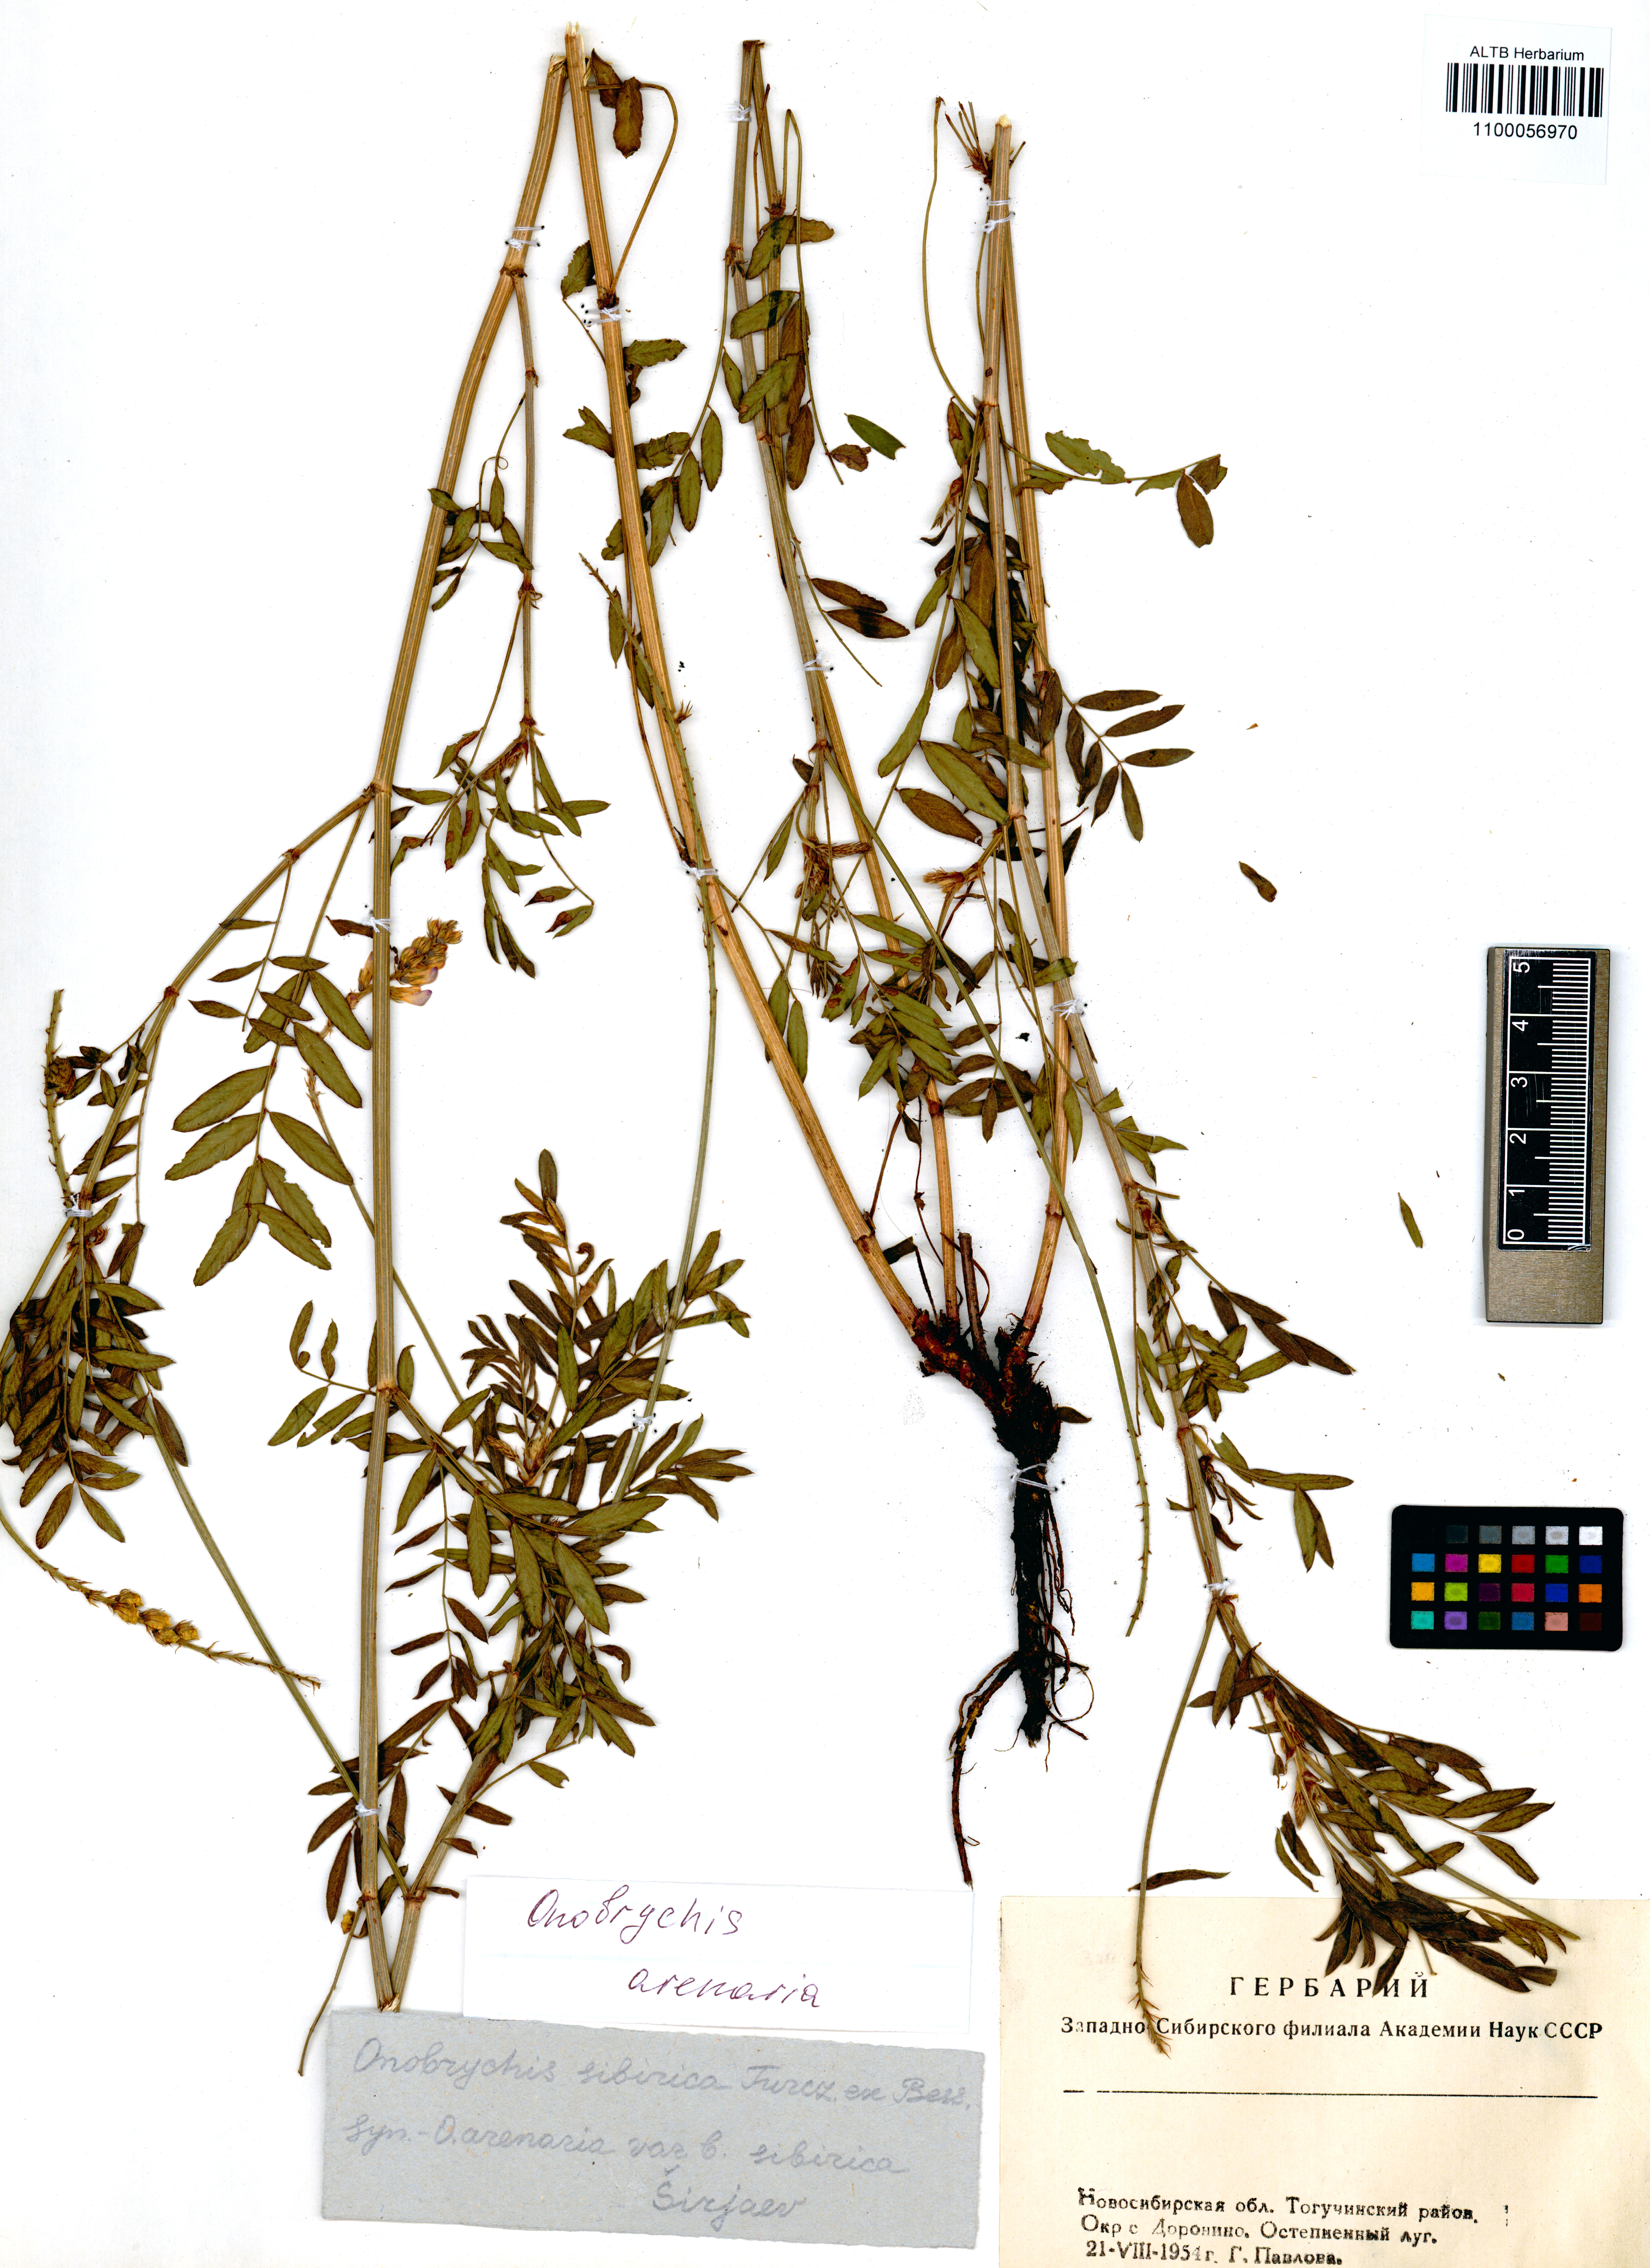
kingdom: Plantae
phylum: Tracheophyta
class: Magnoliopsida
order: Fabales
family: Fabaceae
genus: Onobrychis
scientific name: Onobrychis arenaria
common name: Sand esparcet
